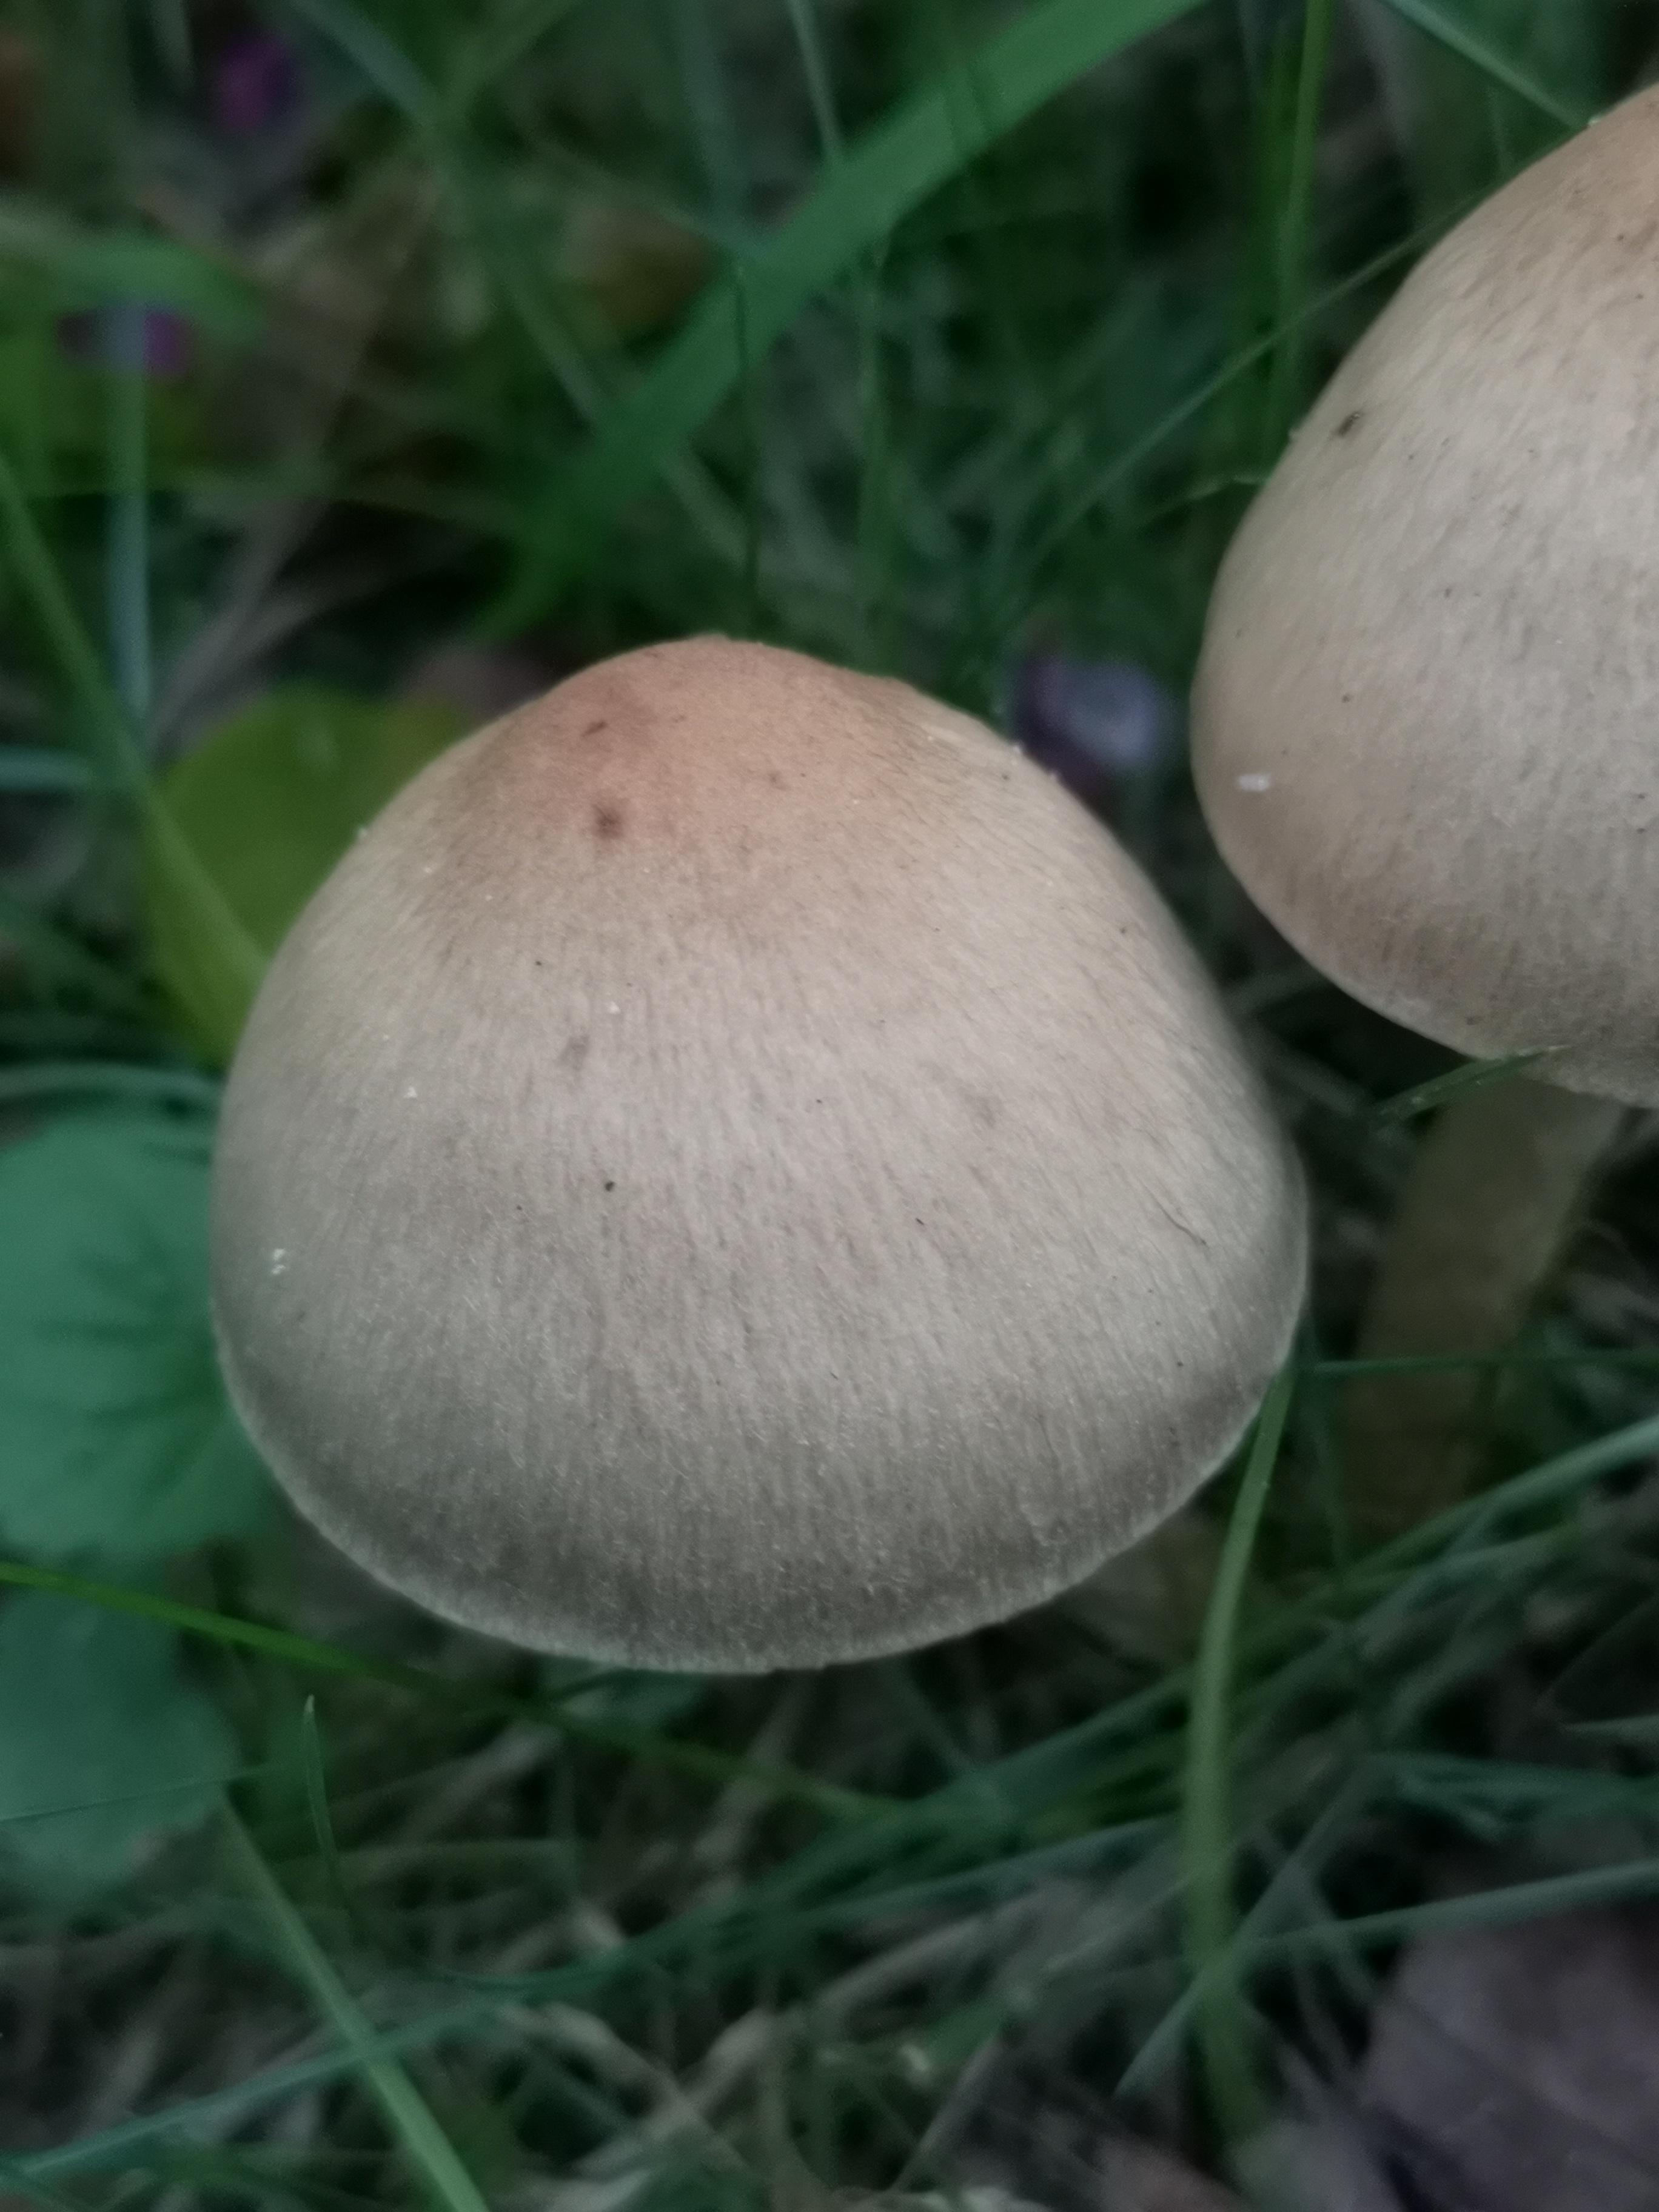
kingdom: Fungi
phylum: Basidiomycota
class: Agaricomycetes
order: Agaricales
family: Psathyrellaceae
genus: Lacrymaria
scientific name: Lacrymaria lacrymabunda
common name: grædende mørkhat
